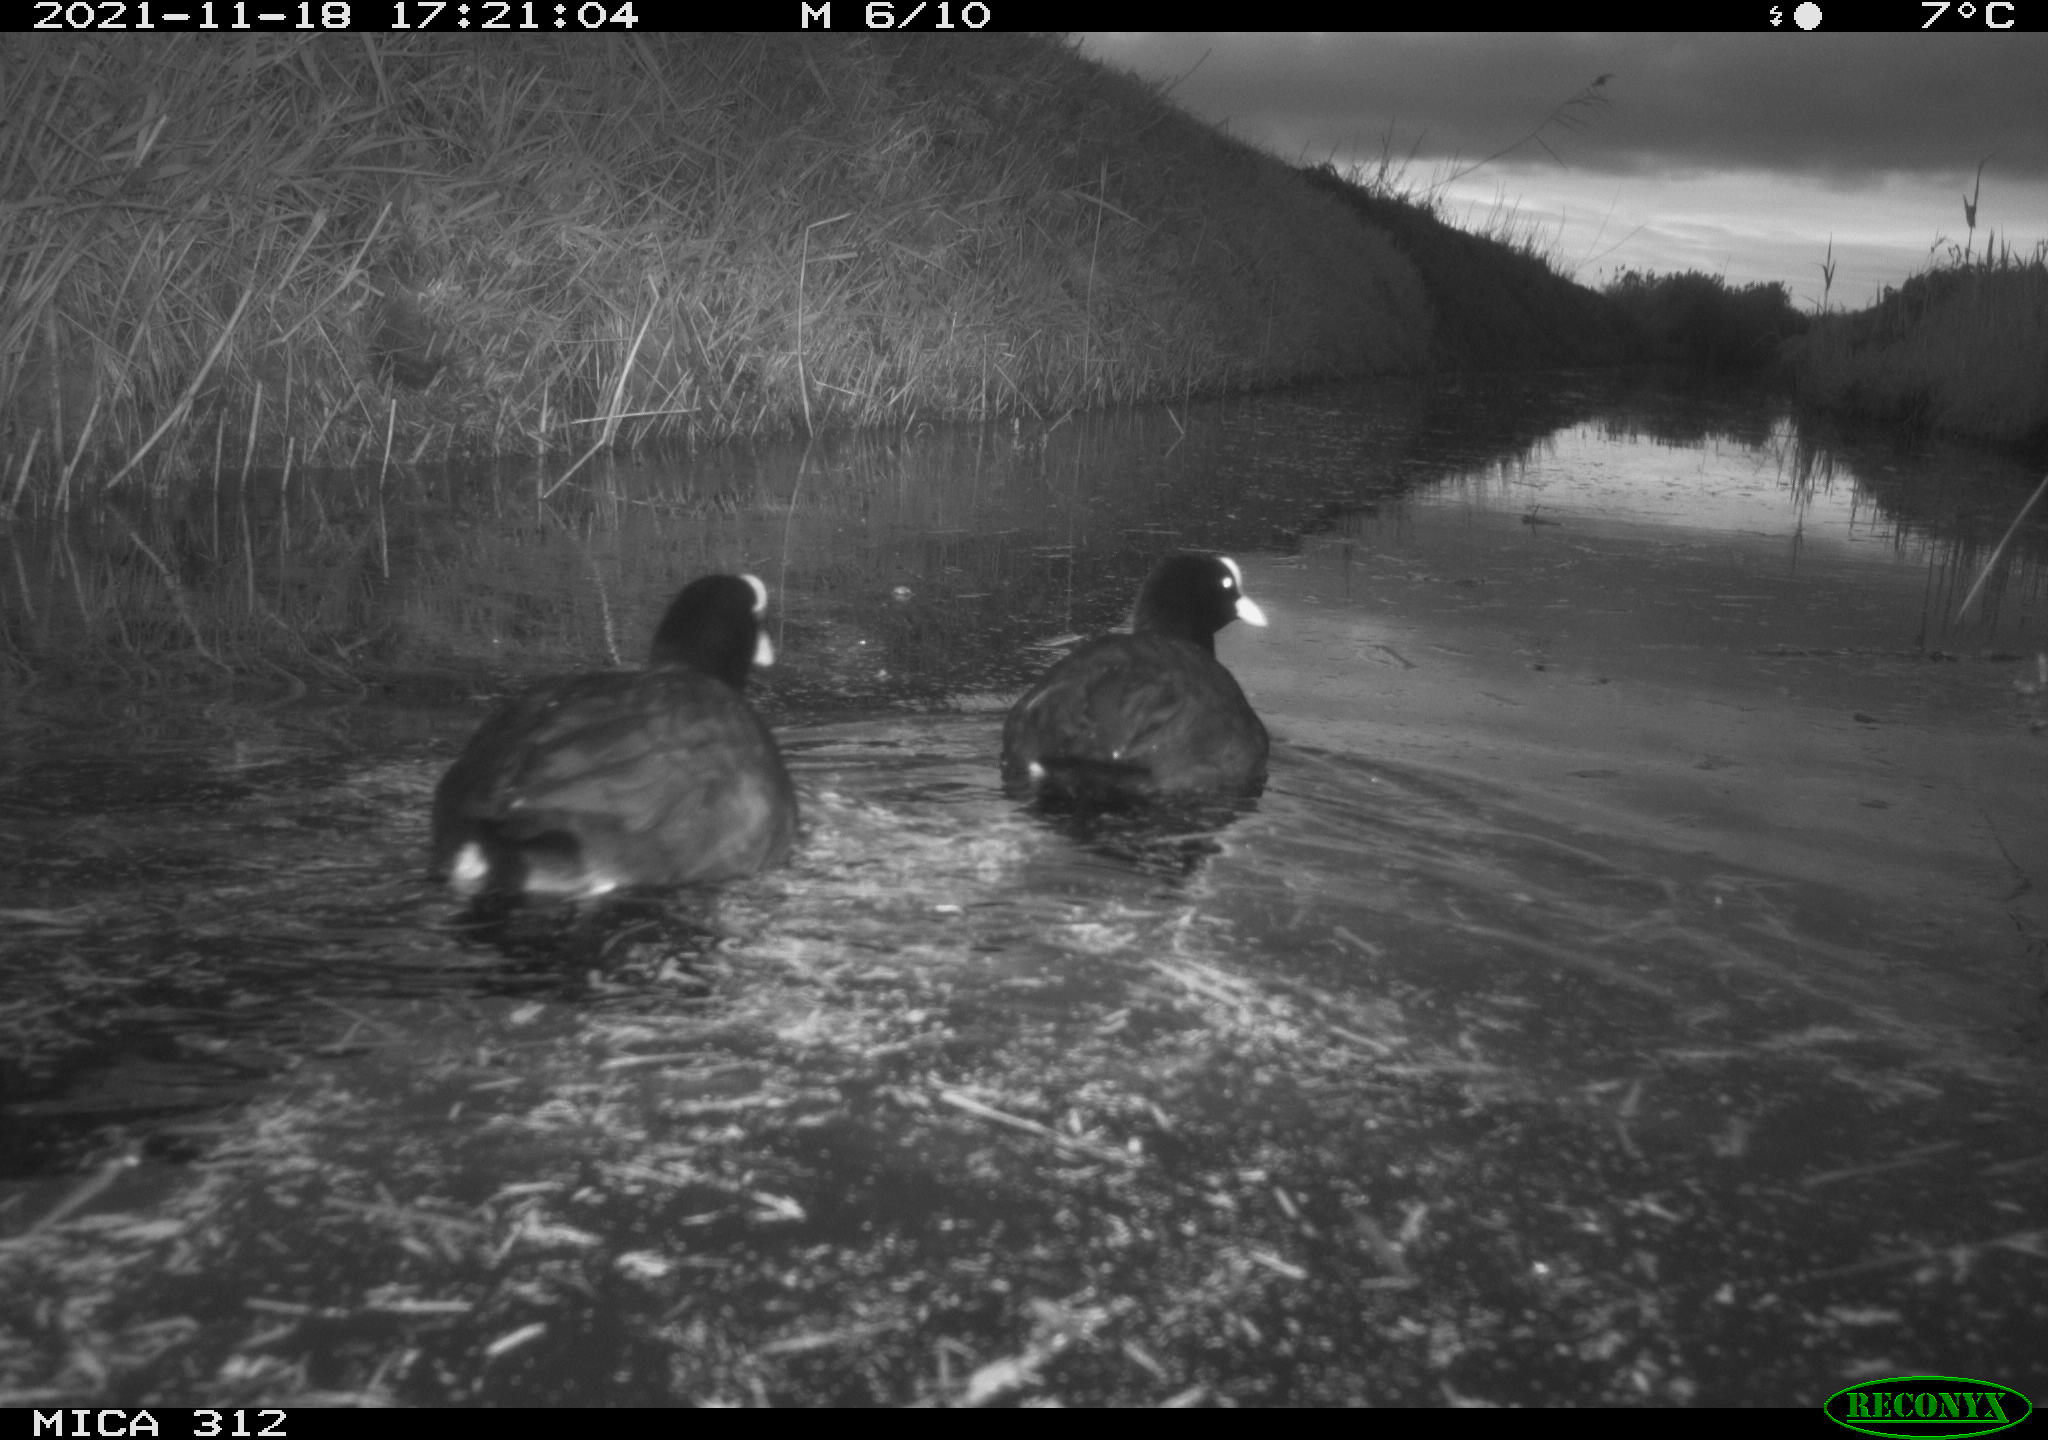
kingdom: Animalia
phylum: Chordata
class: Aves
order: Gruiformes
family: Rallidae
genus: Fulica
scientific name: Fulica atra
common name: Eurasian coot
